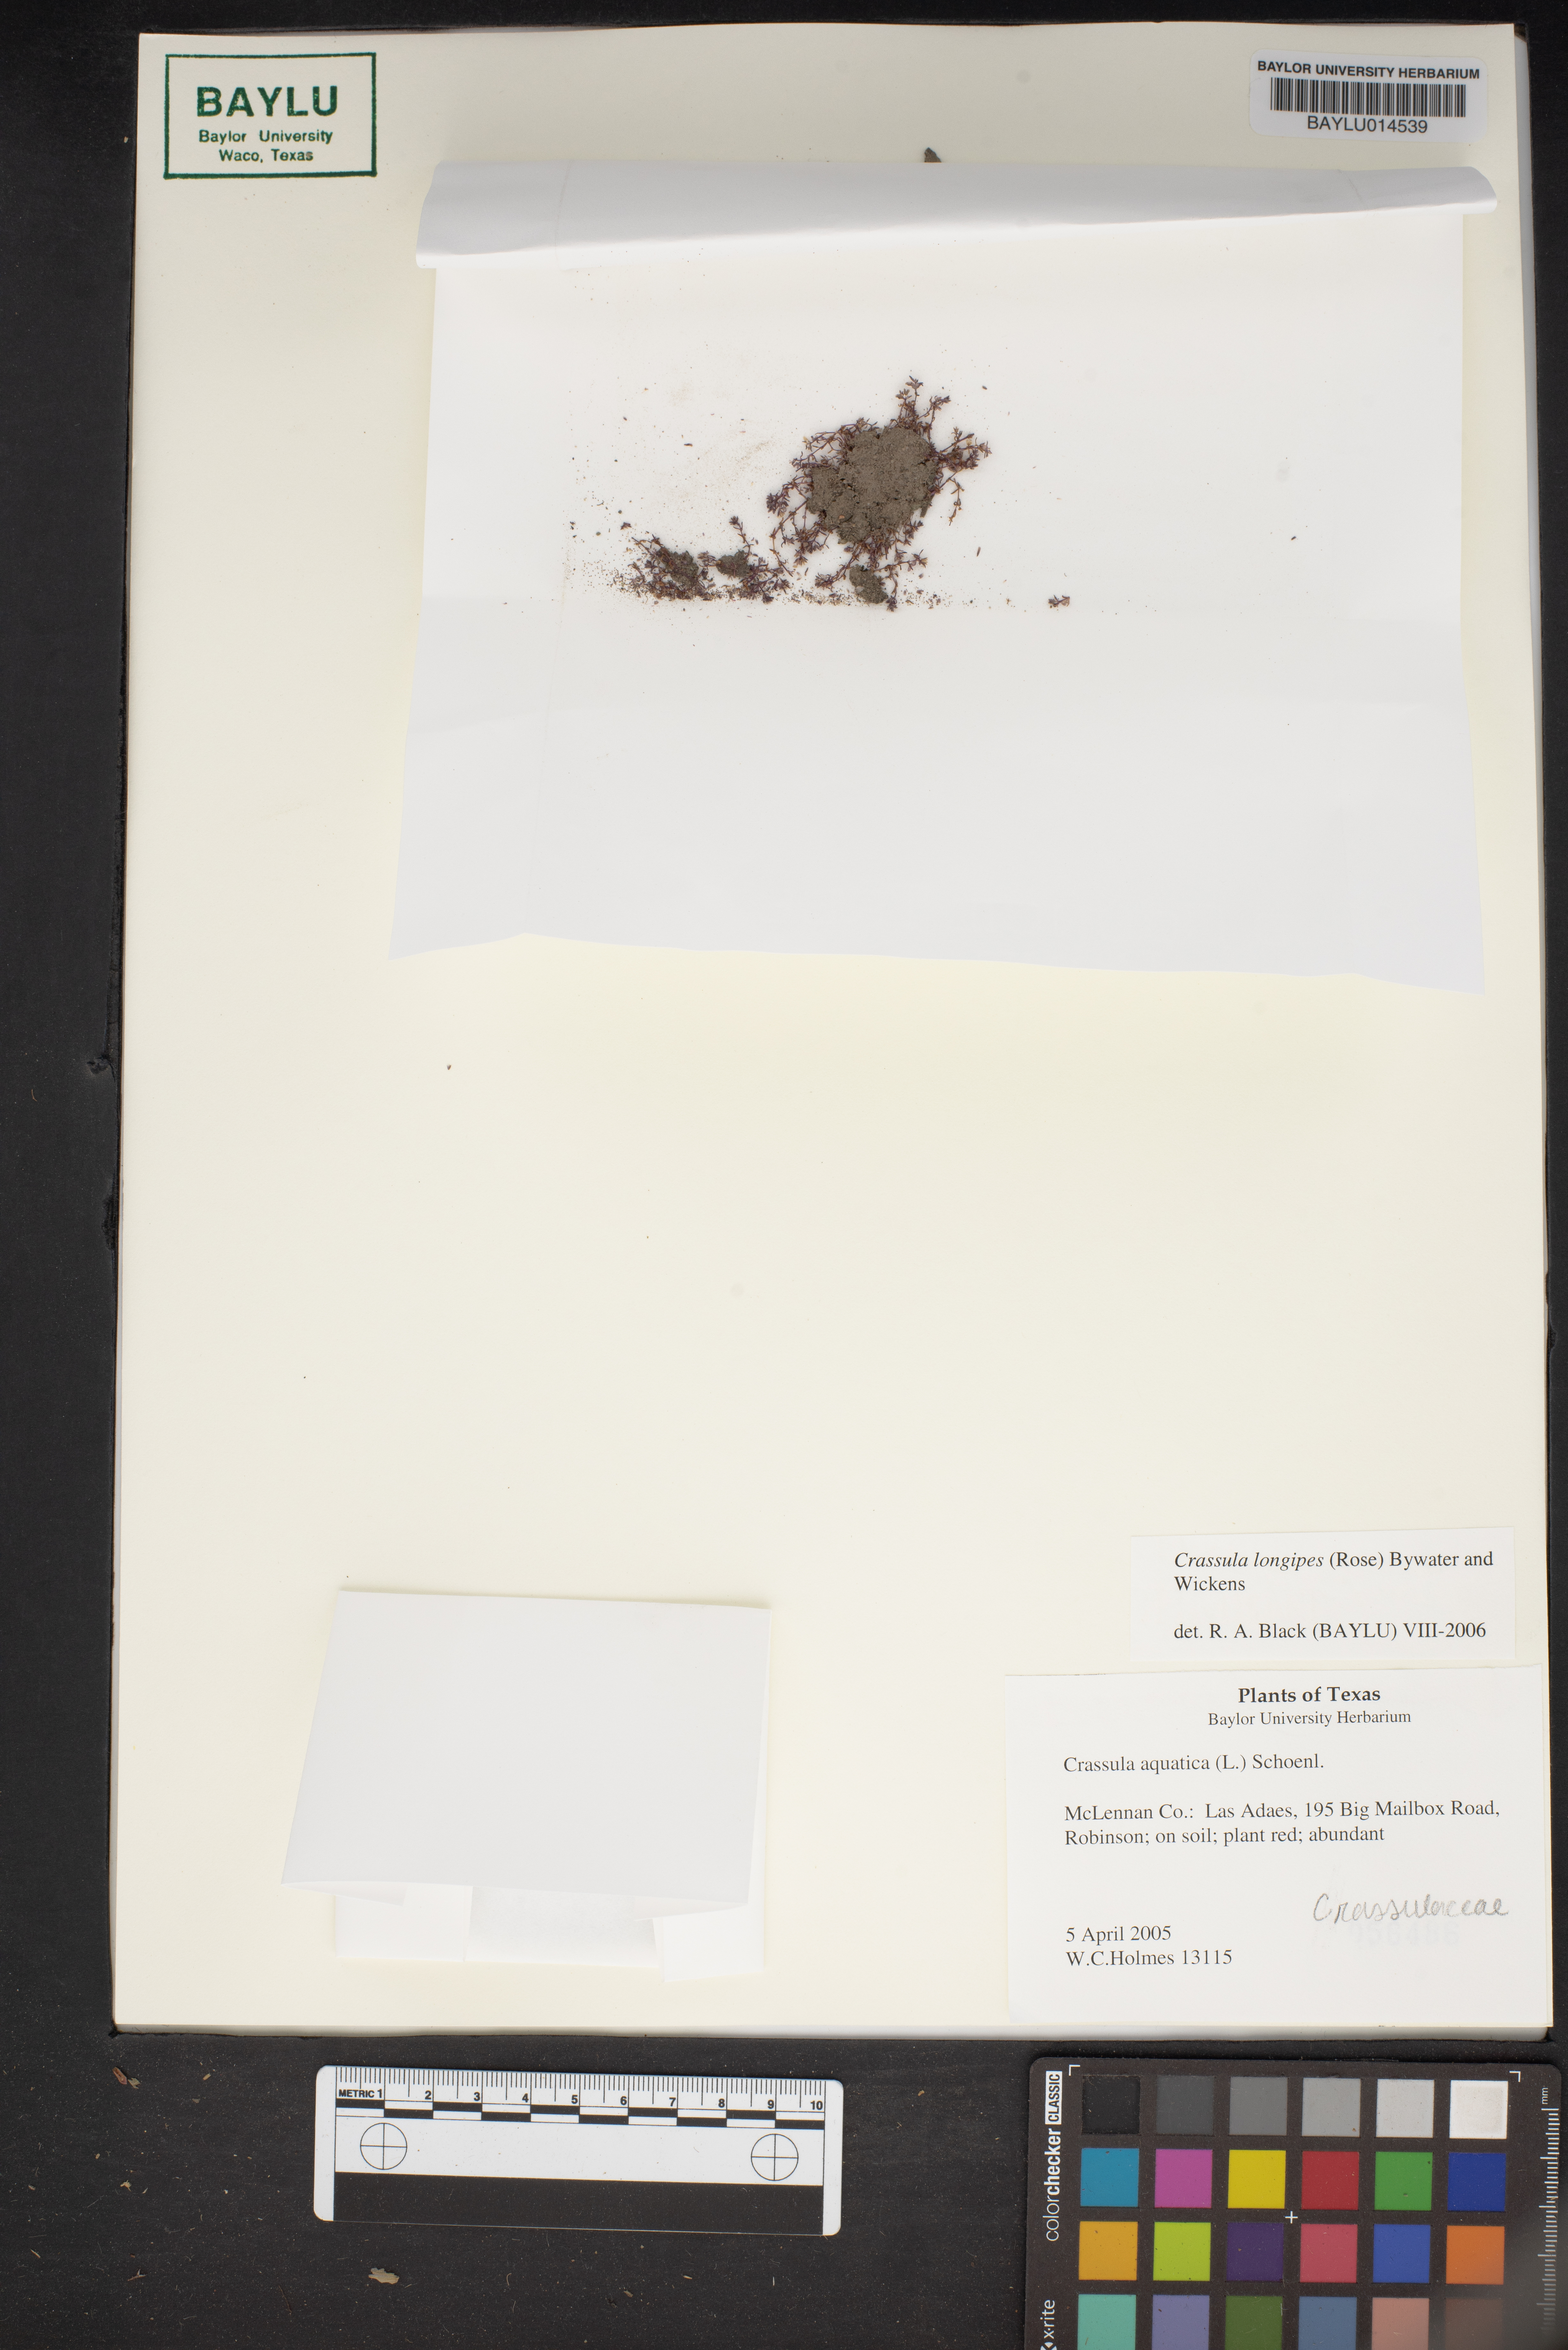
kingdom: Plantae
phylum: Tracheophyta
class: Magnoliopsida
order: Saxifragales
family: Crassulaceae
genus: Crassula
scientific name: Crassula longipes
